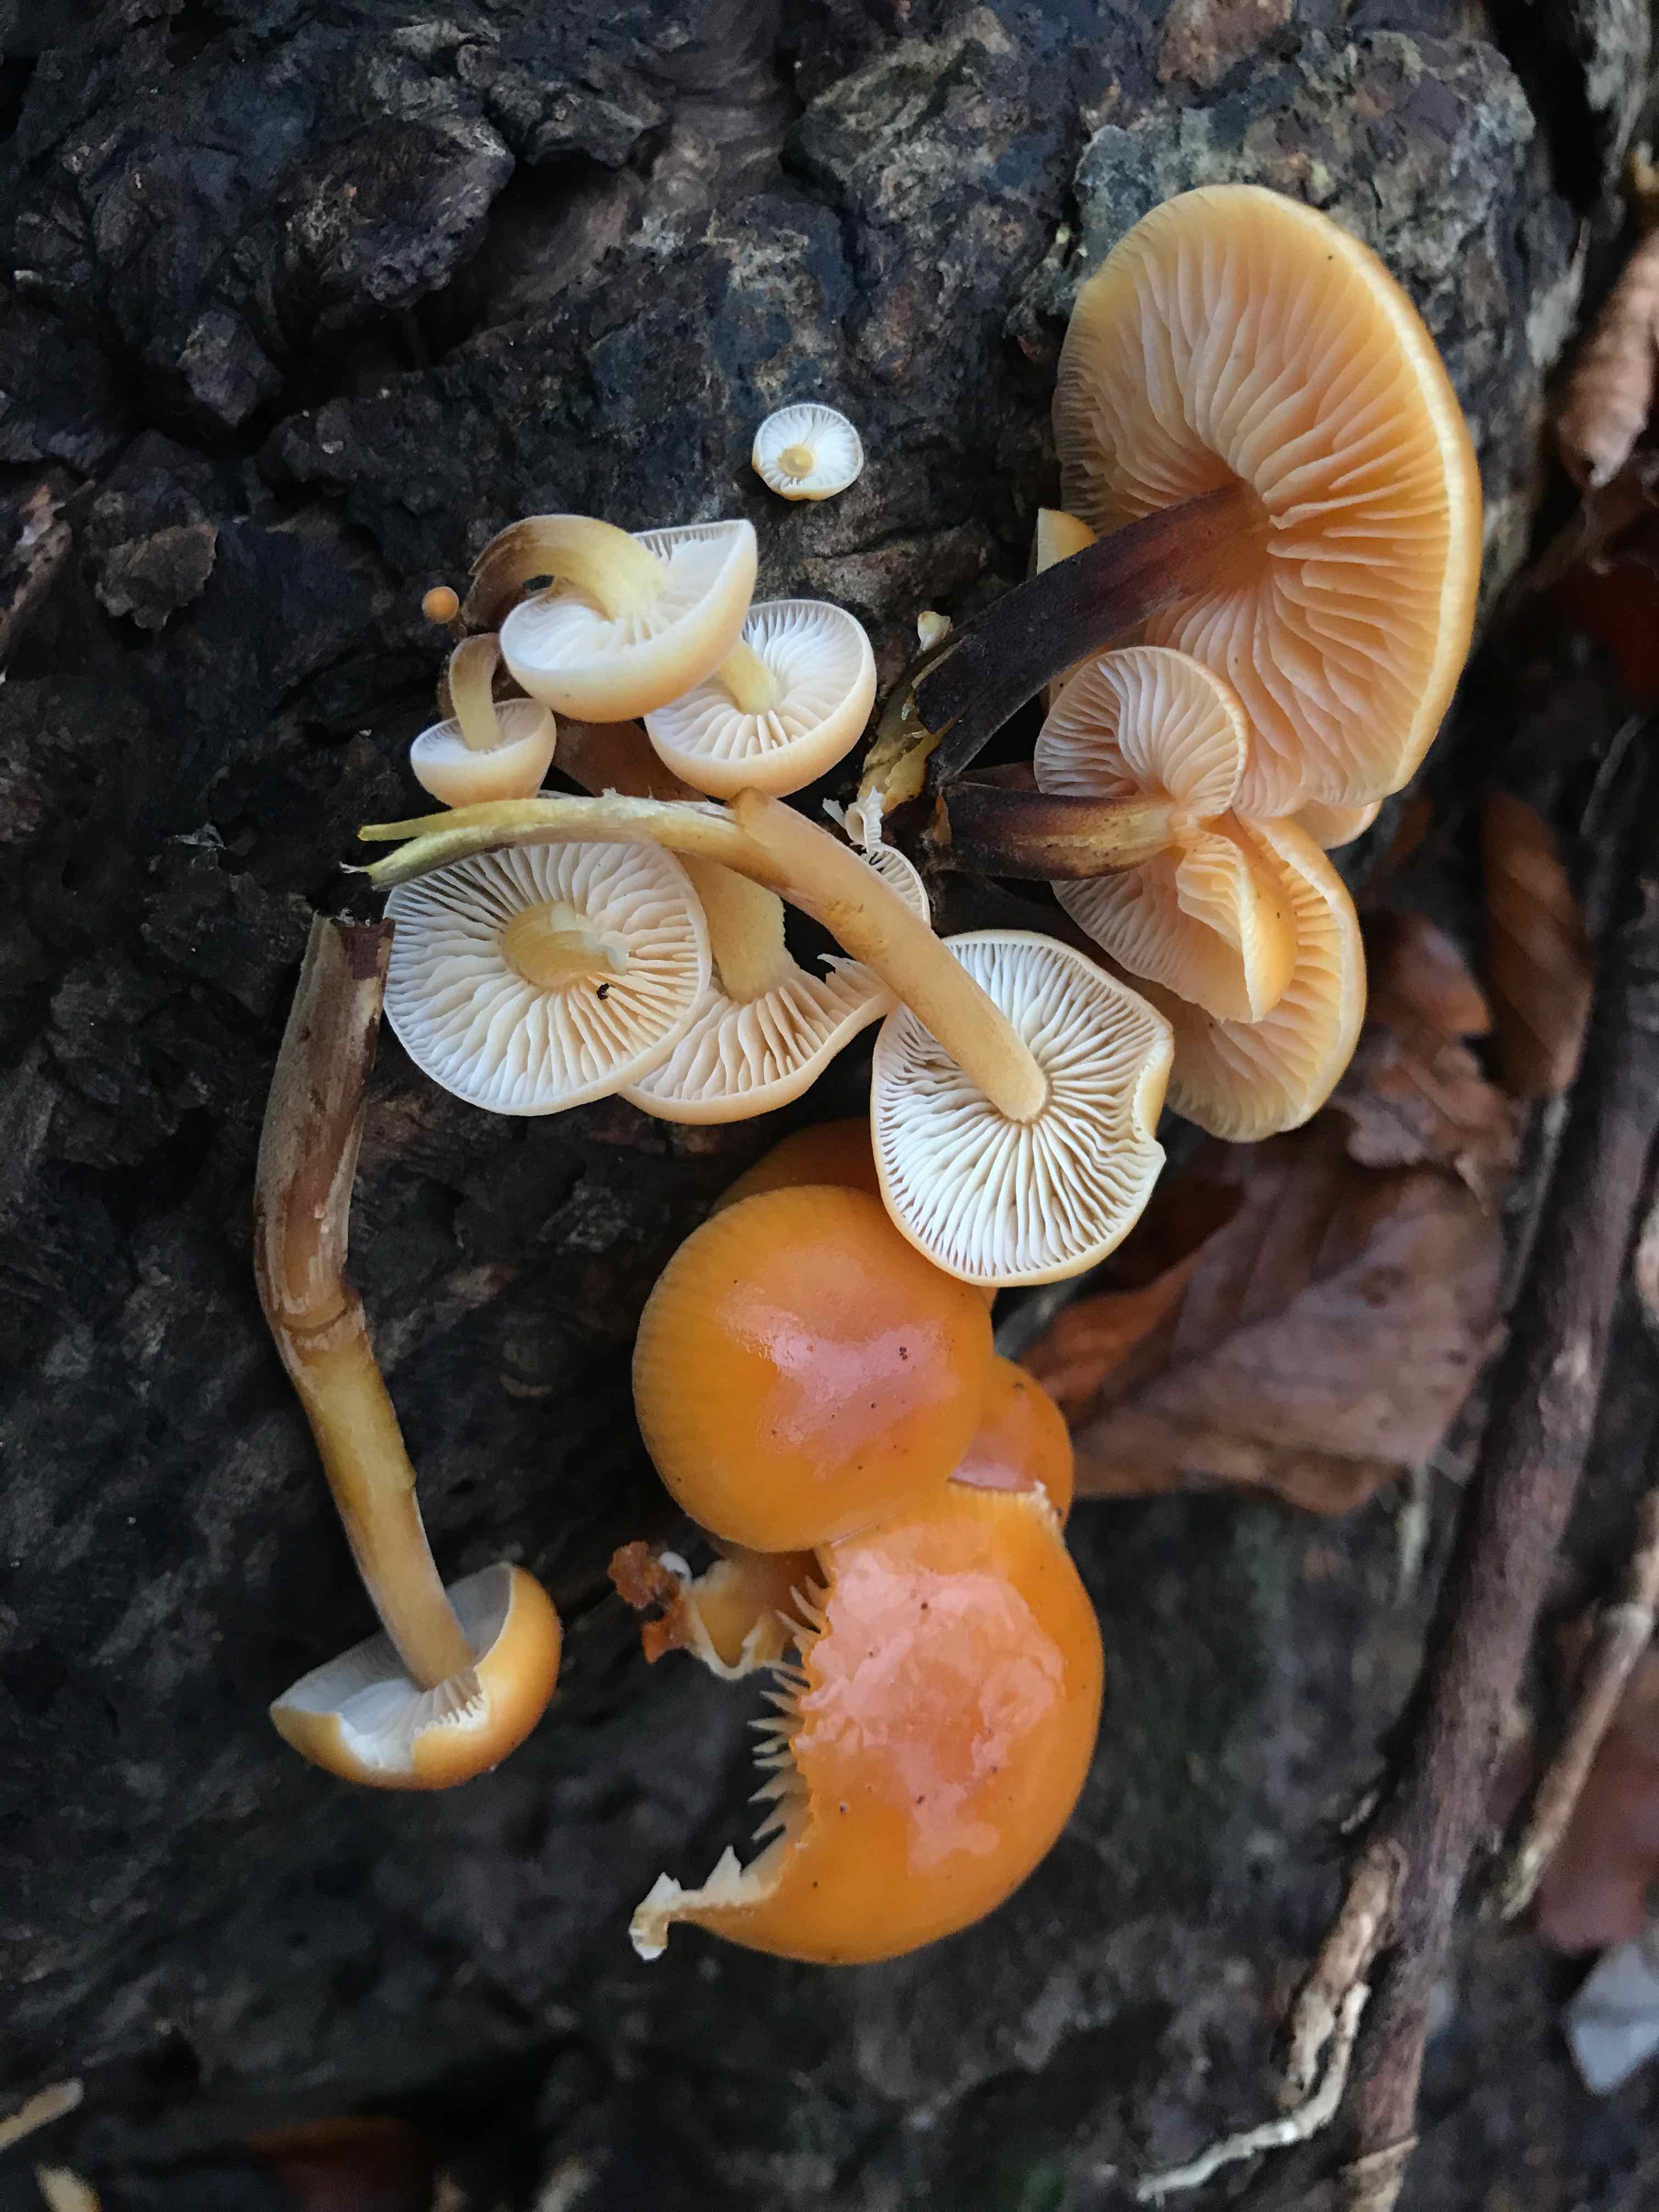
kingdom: Fungi
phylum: Basidiomycota
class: Agaricomycetes
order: Agaricales
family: Physalacriaceae
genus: Flammulina
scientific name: Flammulina velutipes
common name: gul fløjlsfod
